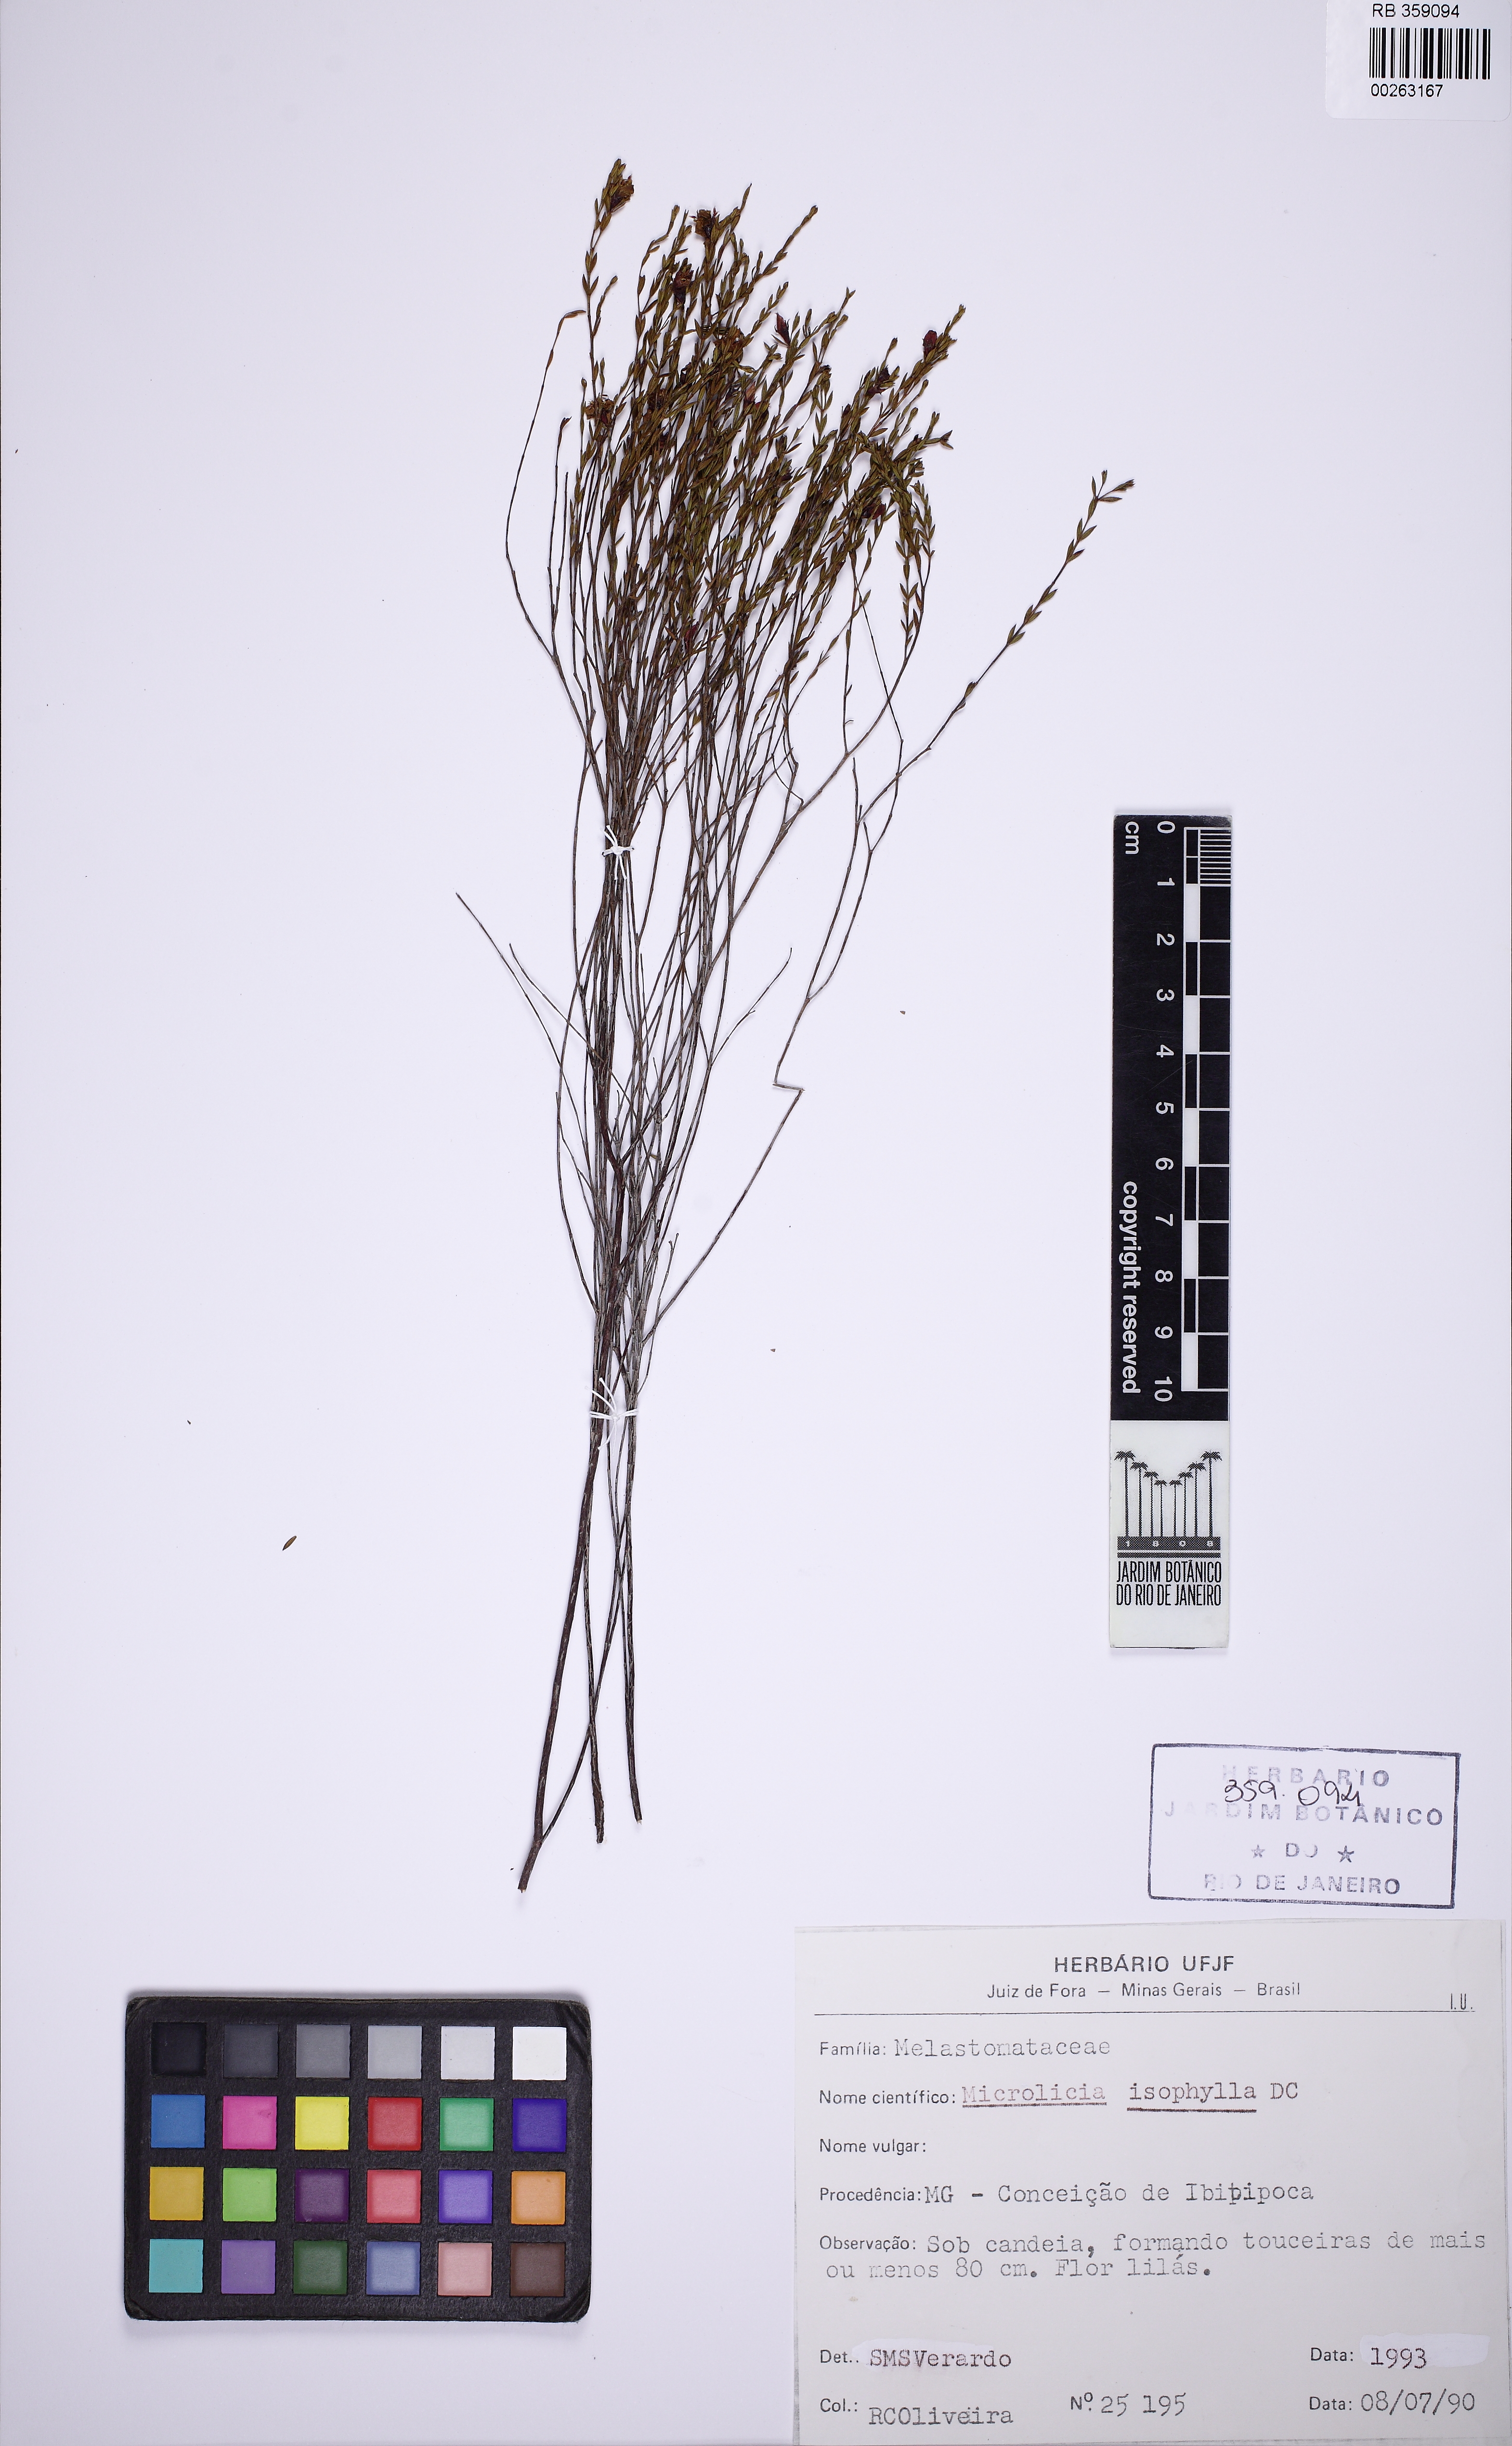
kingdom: Plantae
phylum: Tracheophyta
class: Magnoliopsida
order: Myrtales
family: Melastomataceae
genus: Microlicia
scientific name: Microlicia isophylla
